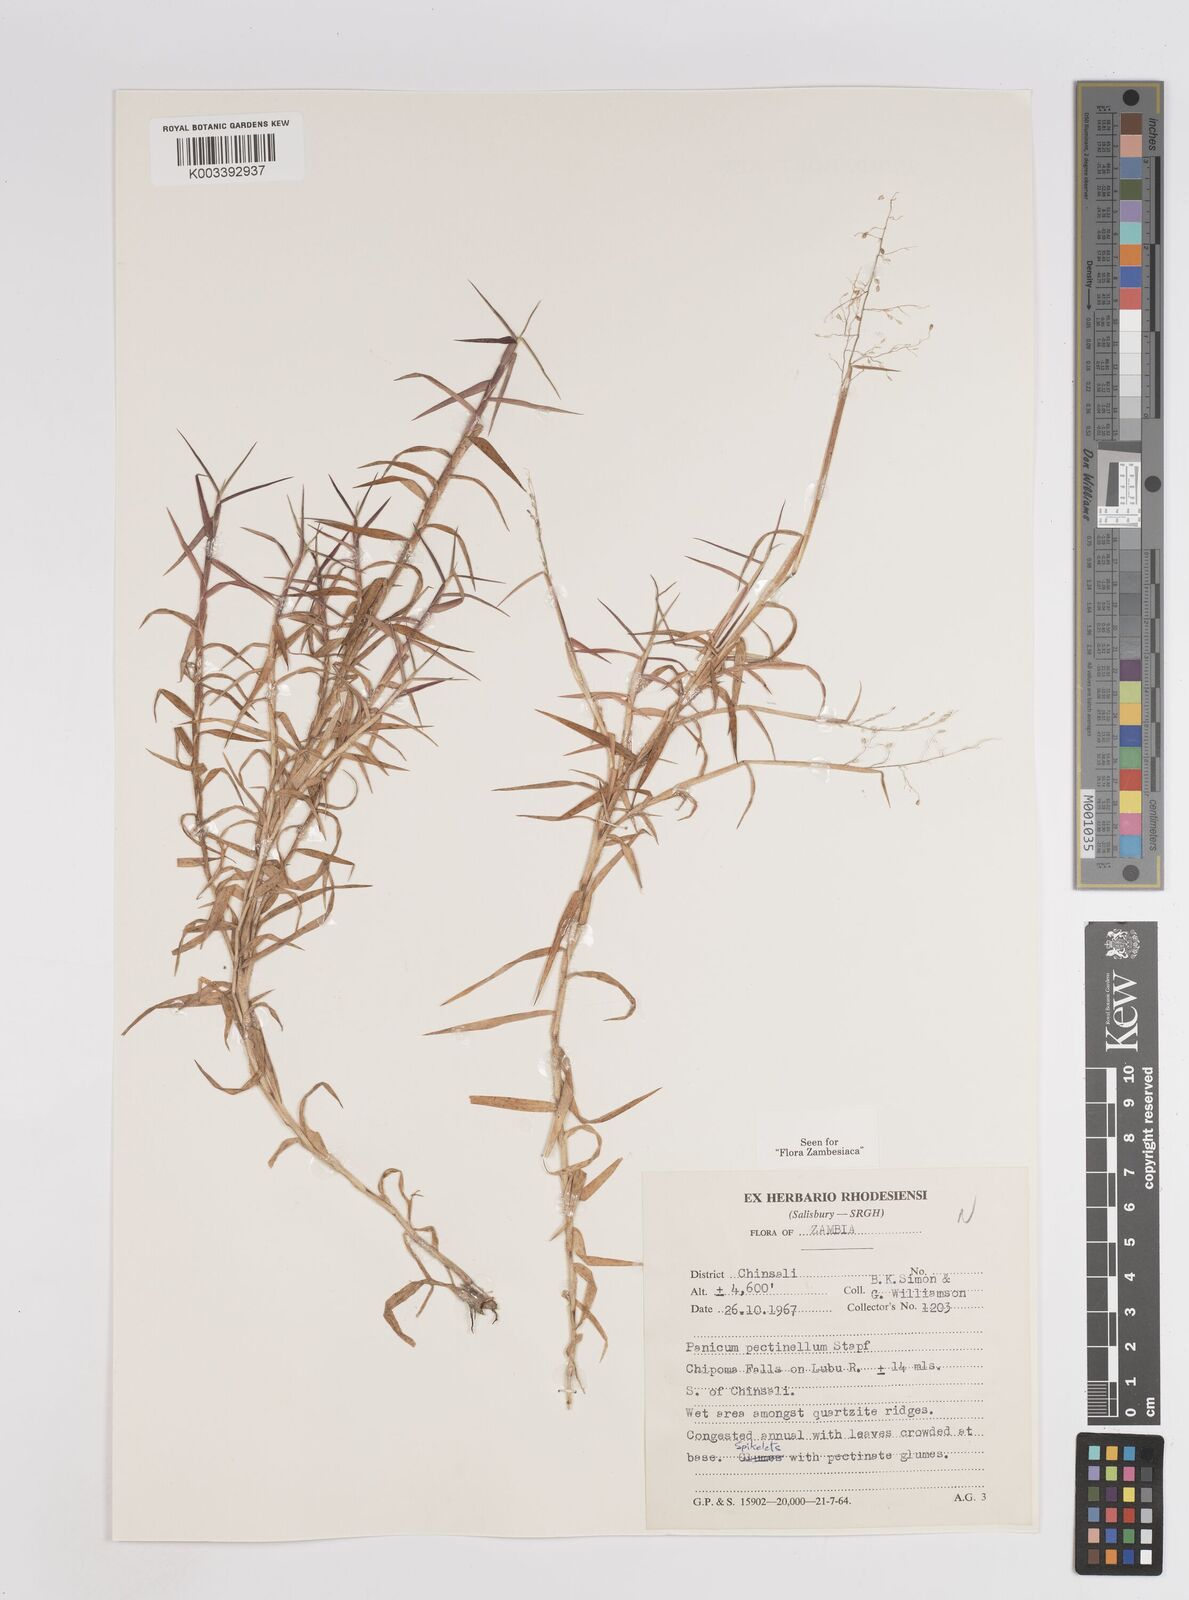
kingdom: Plantae
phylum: Tracheophyta
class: Liliopsida
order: Poales
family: Poaceae
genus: Adenochloa
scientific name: Adenochloa pectinella
